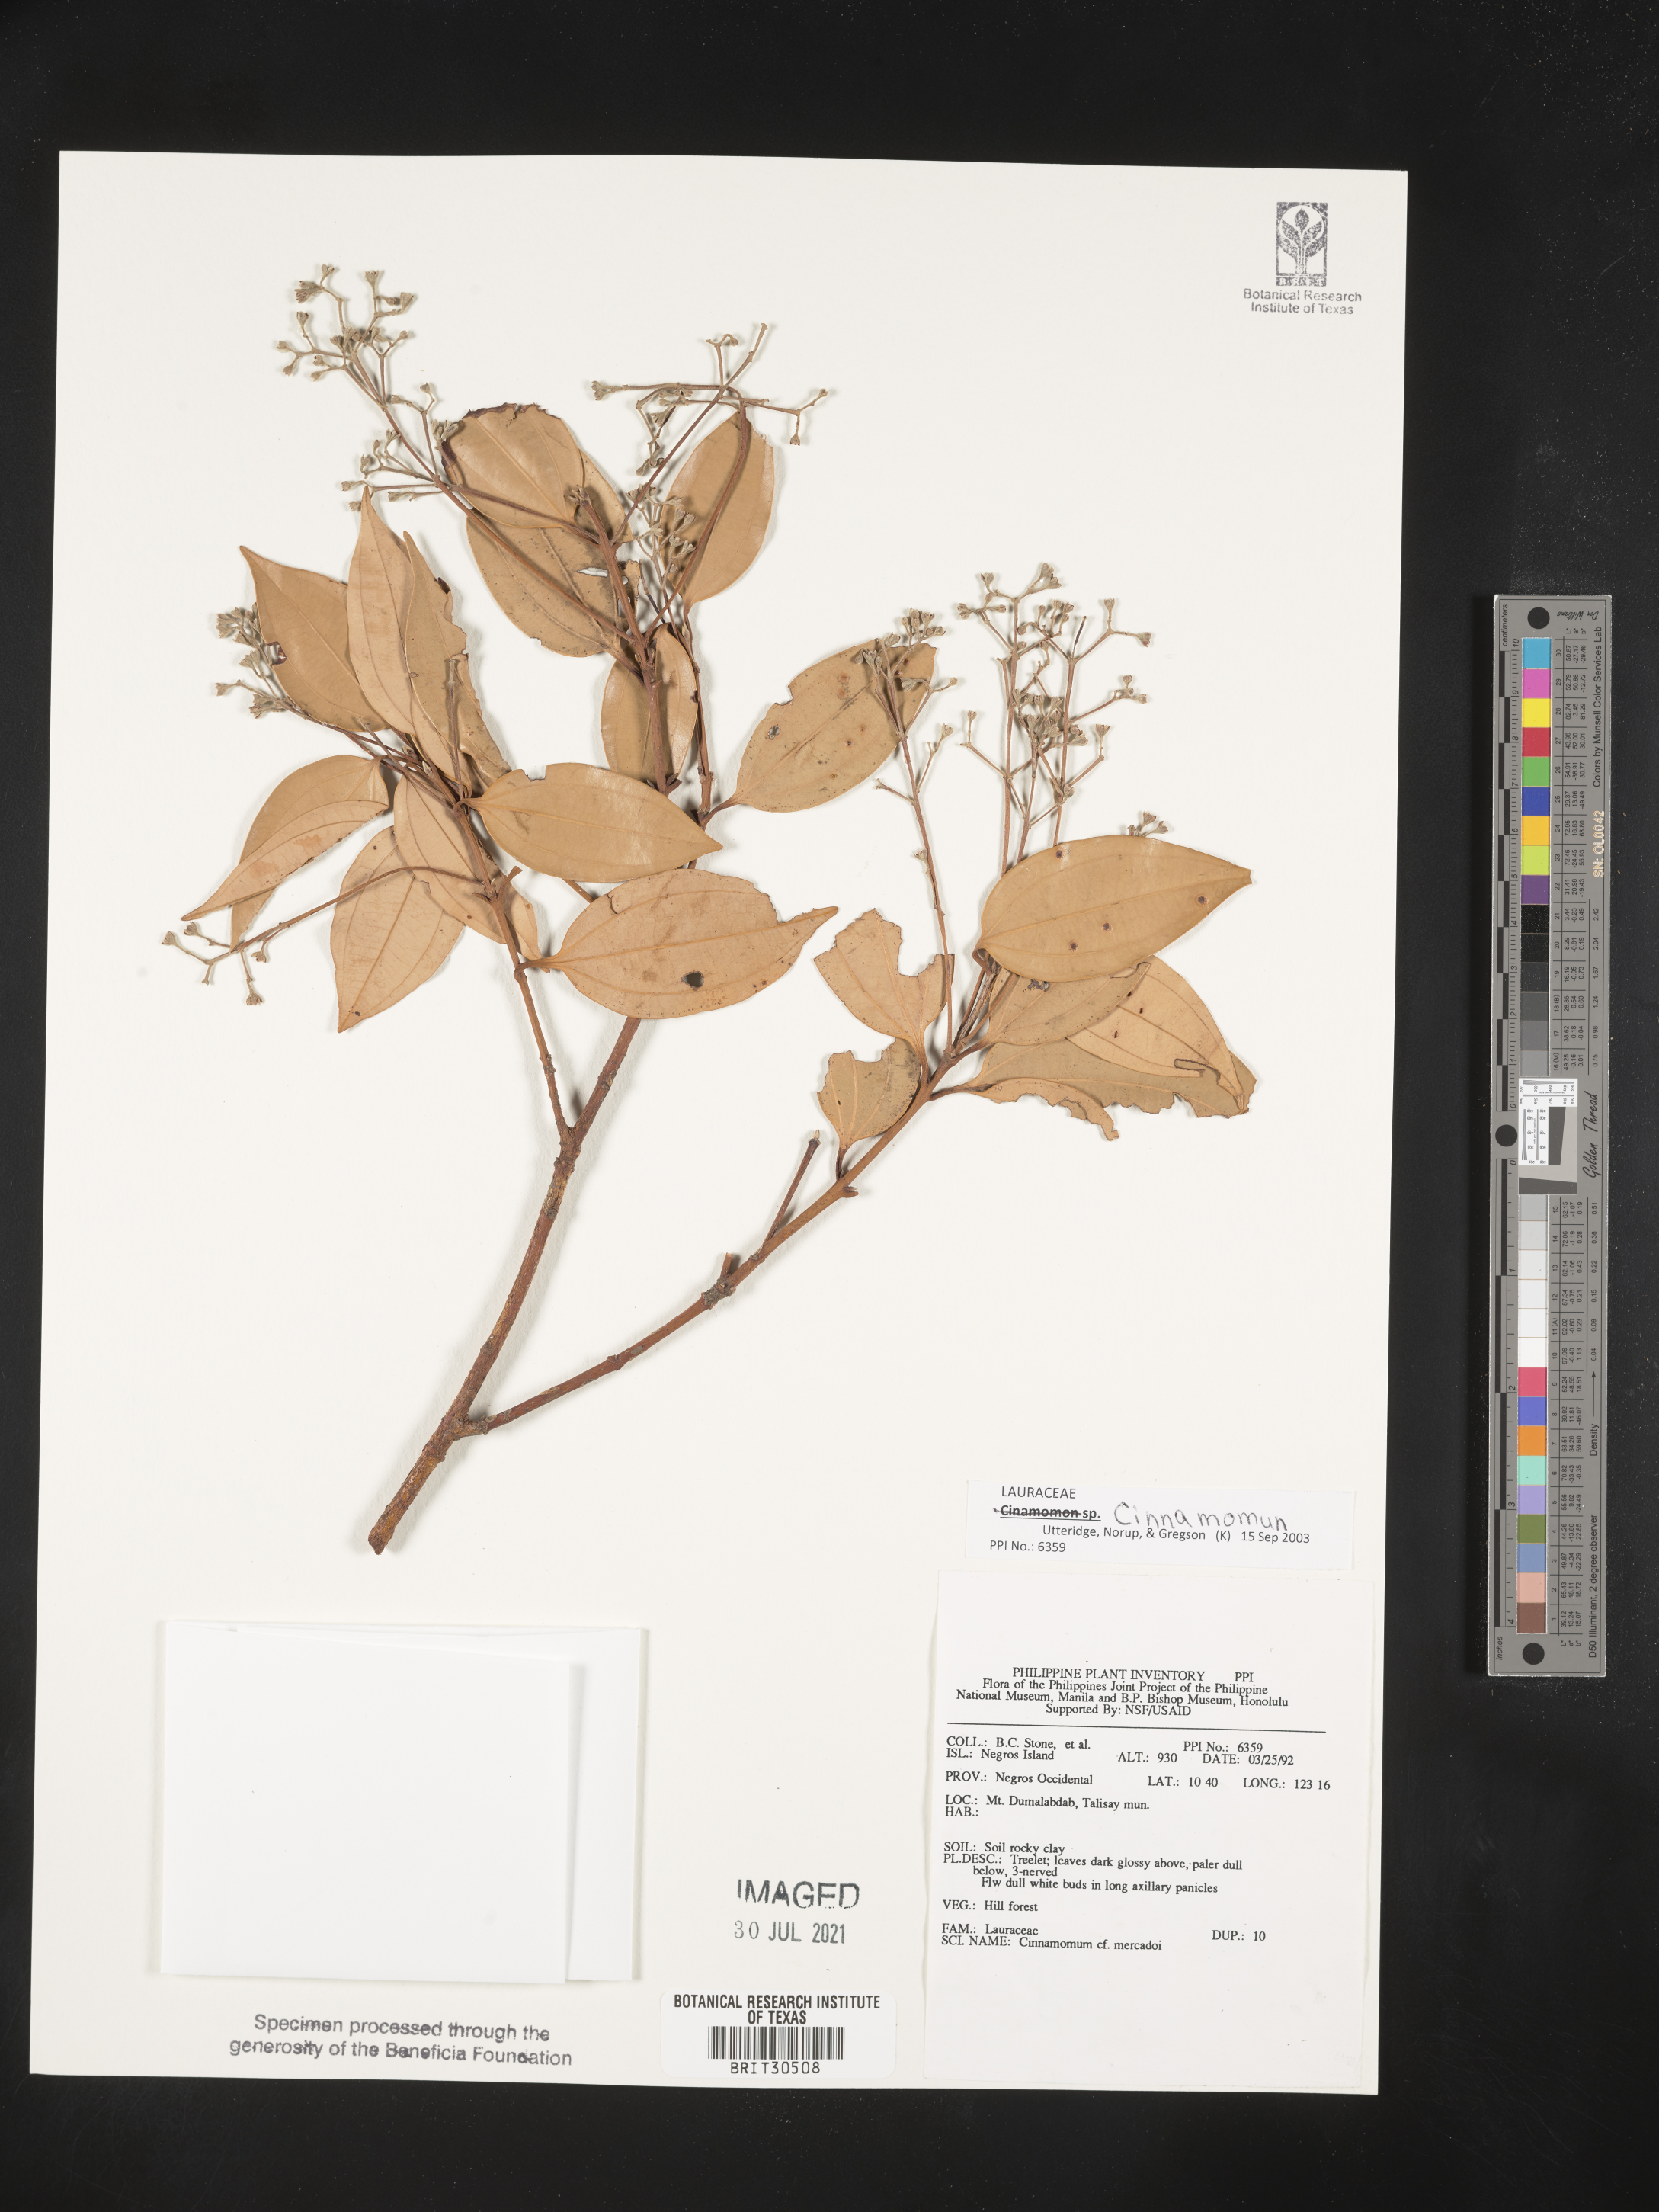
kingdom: Plantae
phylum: Tracheophyta
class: Magnoliopsida
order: Laurales
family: Lauraceae
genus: Cinnamomum
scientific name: Cinnamomum mercadoi
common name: Cinamomon
